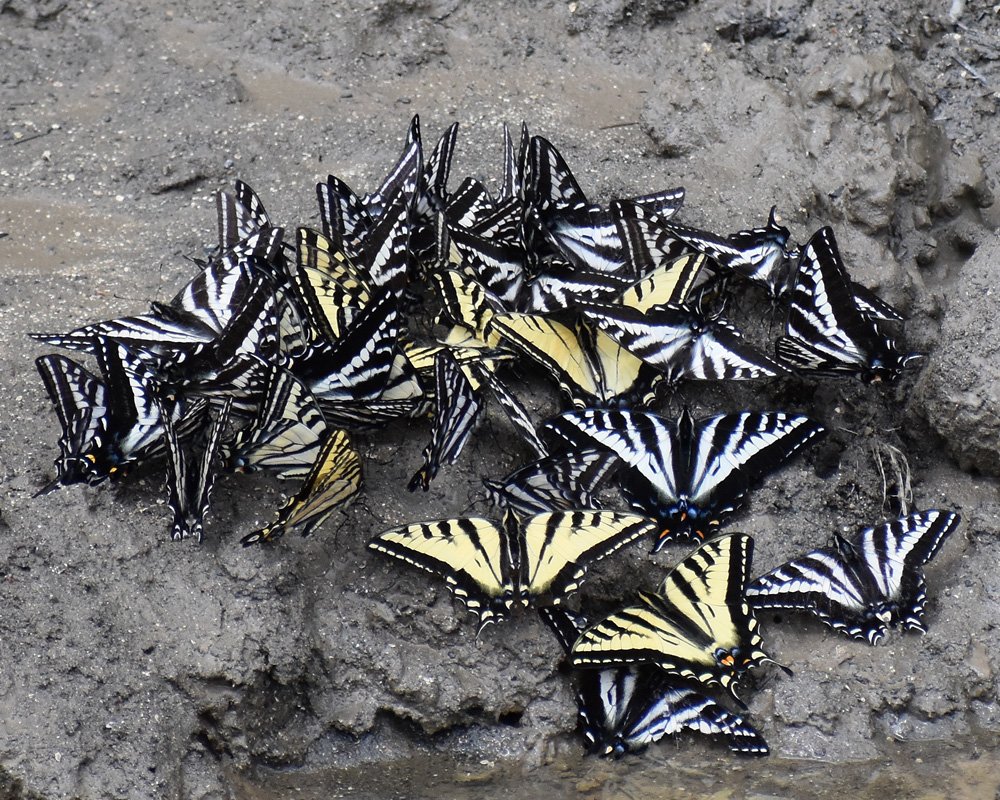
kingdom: Animalia
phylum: Arthropoda
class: Insecta
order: Lepidoptera
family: Papilionidae
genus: Pterourus
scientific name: Pterourus eurymedon
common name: Pale Swallowtail
